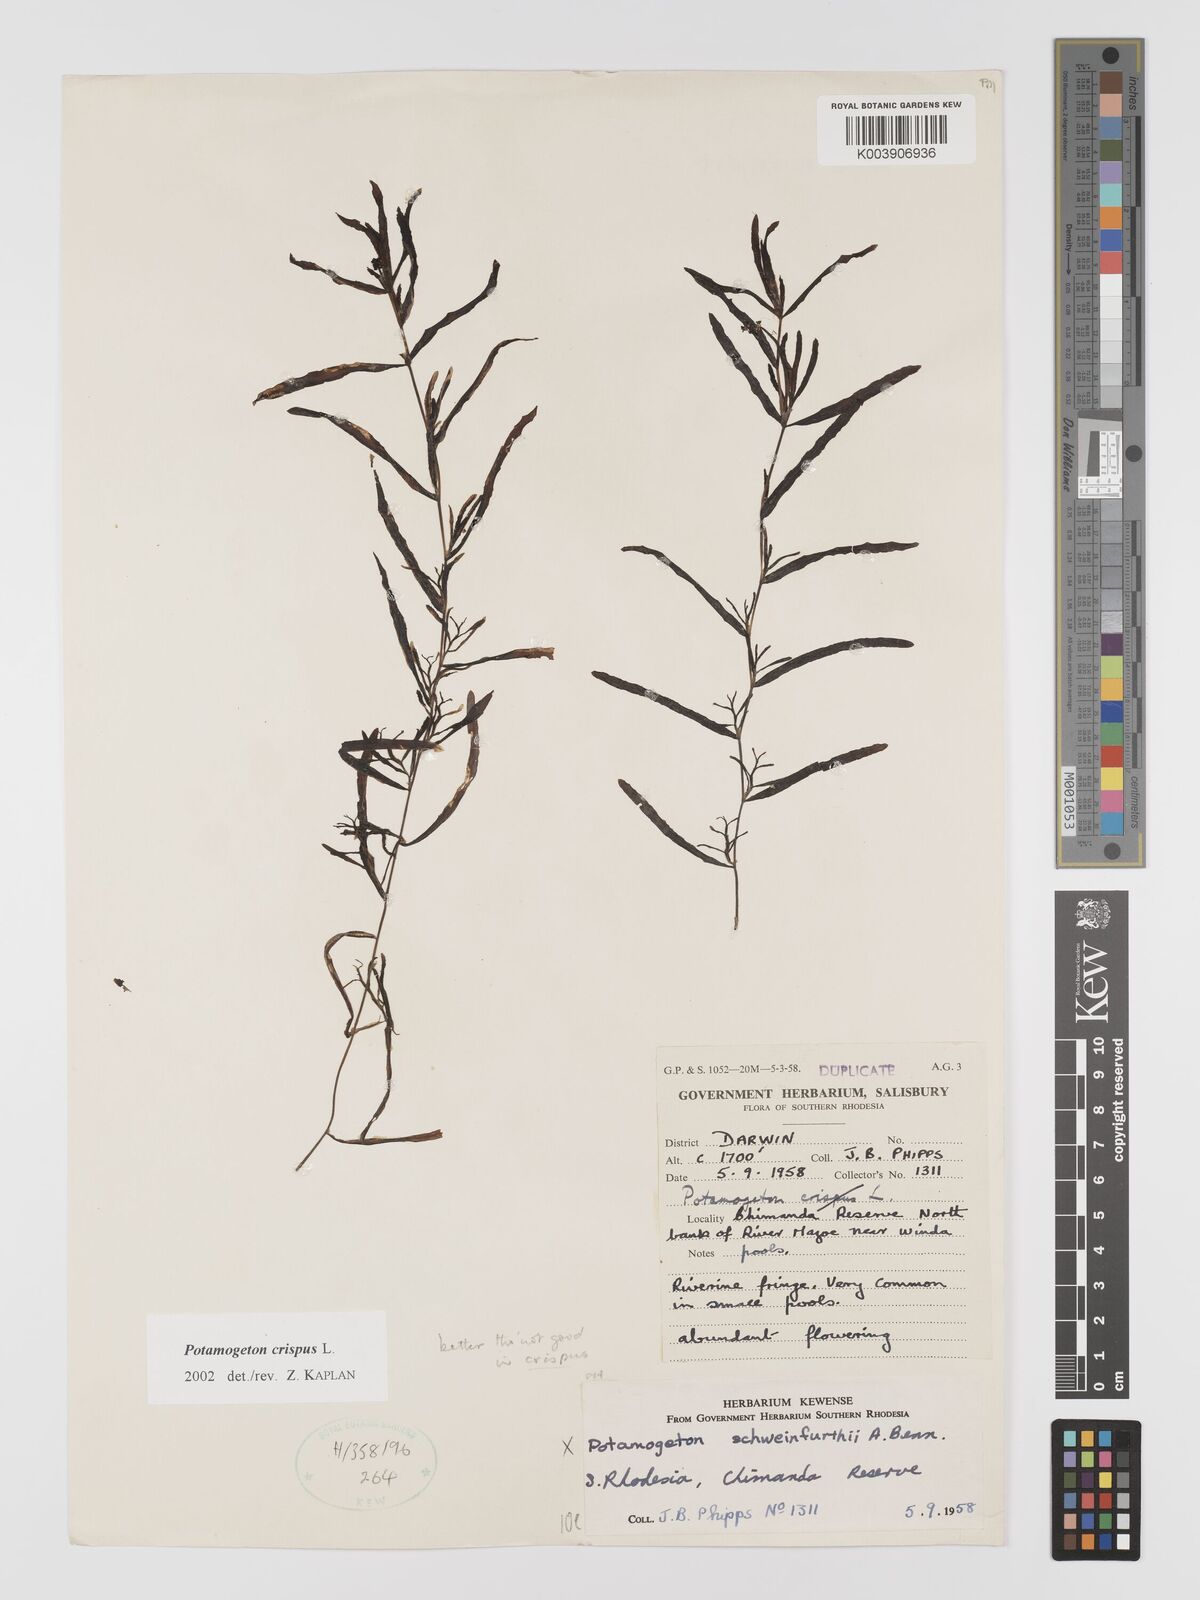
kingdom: Plantae
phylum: Tracheophyta
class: Liliopsida
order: Alismatales
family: Potamogetonaceae
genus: Potamogeton
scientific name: Potamogeton crispus
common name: Curled pondweed
